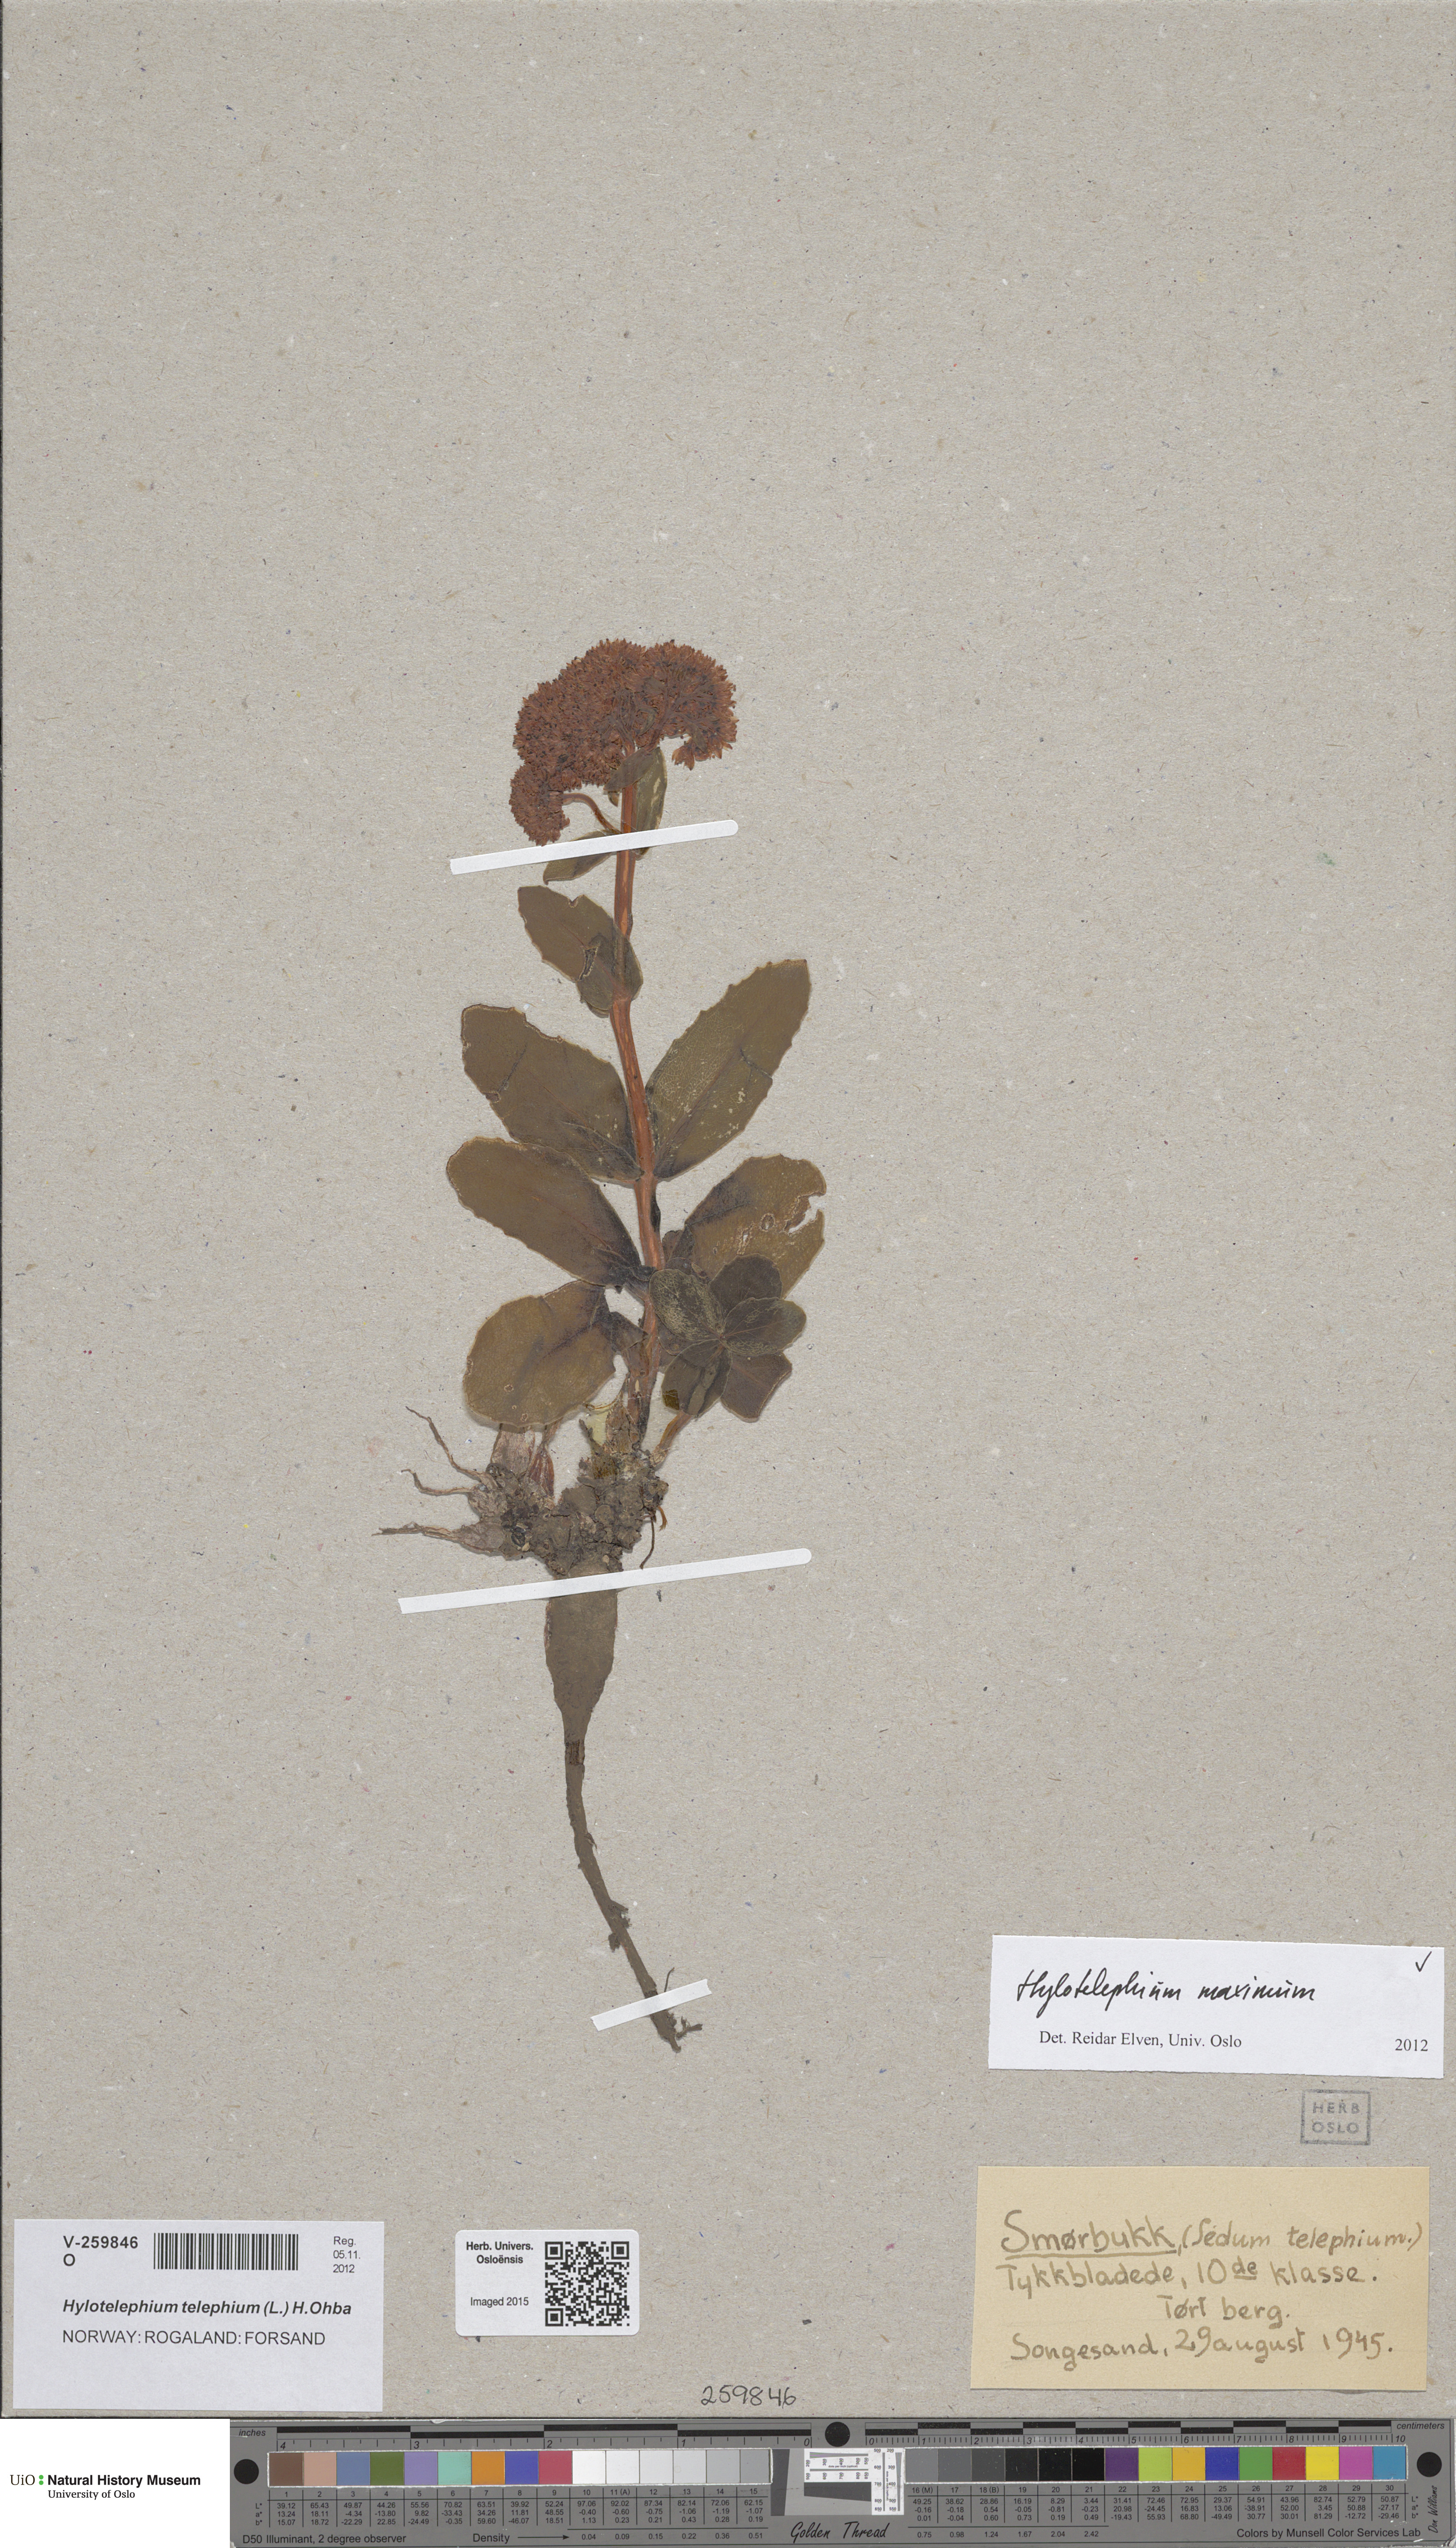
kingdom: Plantae
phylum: Tracheophyta
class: Magnoliopsida
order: Saxifragales
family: Crassulaceae
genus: Hylotelephium
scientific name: Hylotelephium maximum
